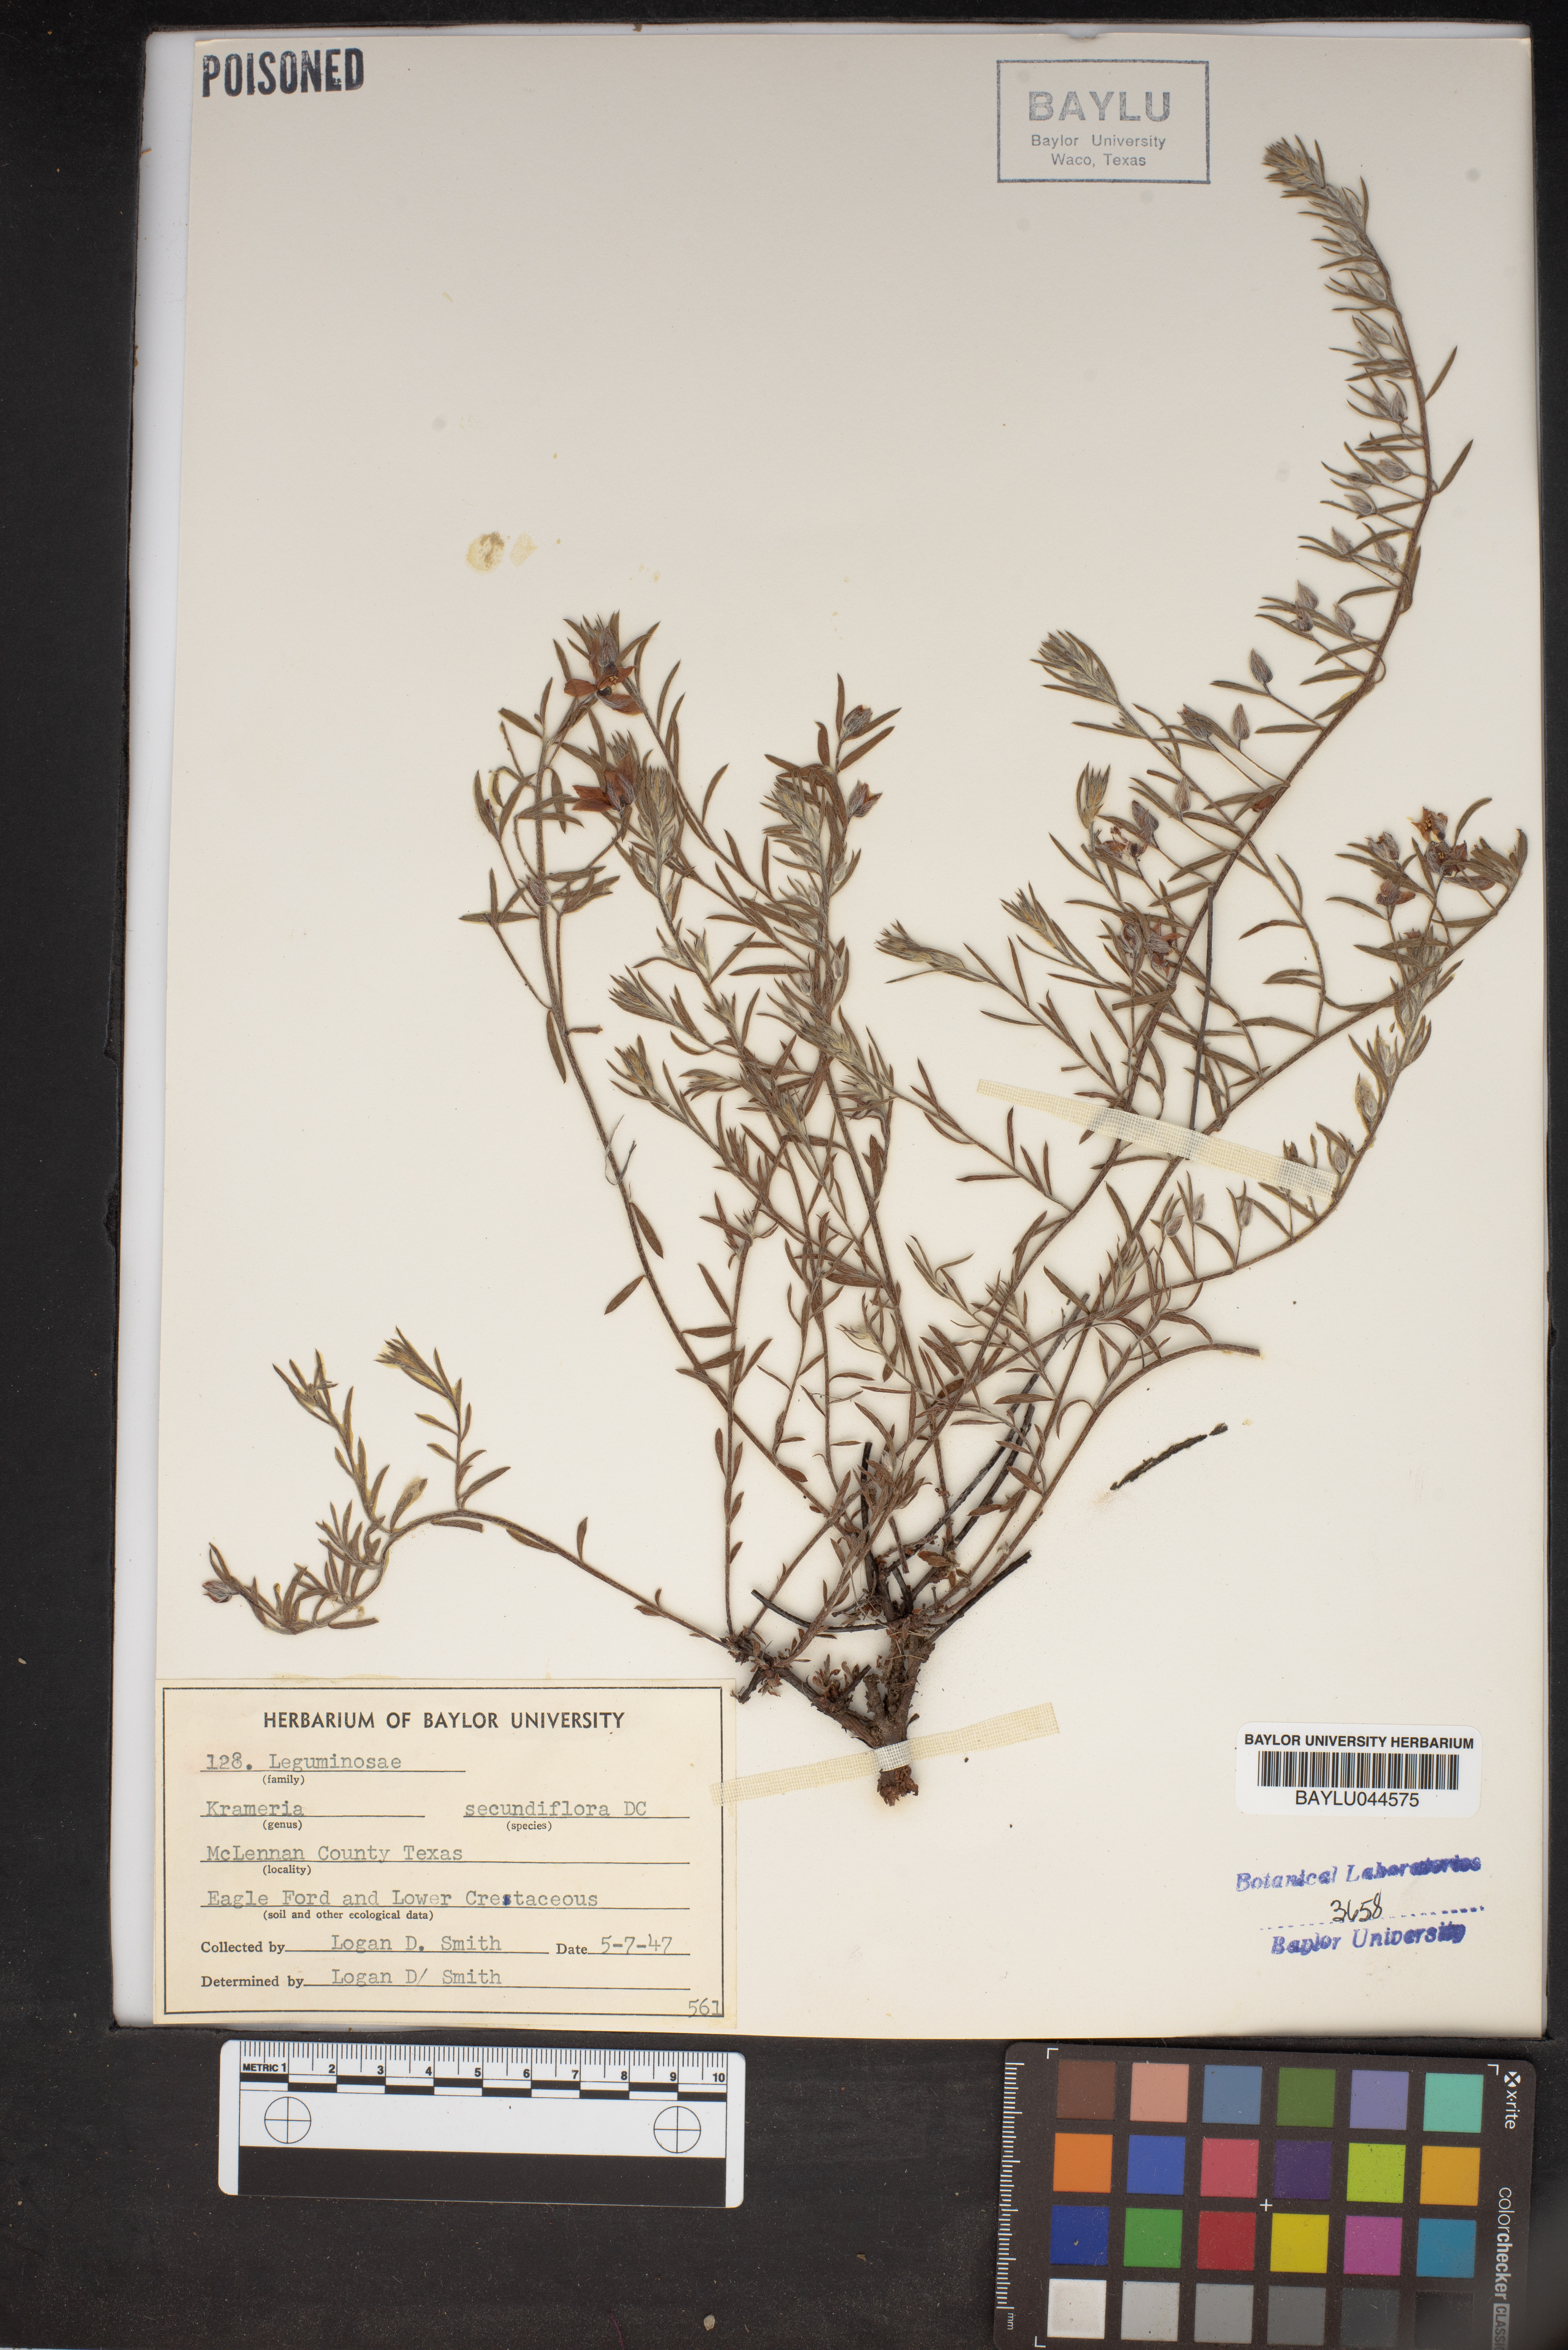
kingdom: Plantae
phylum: Tracheophyta
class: Magnoliopsida
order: Zygophyllales
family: Krameriaceae
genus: Krameria
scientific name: Krameria secundiflora
